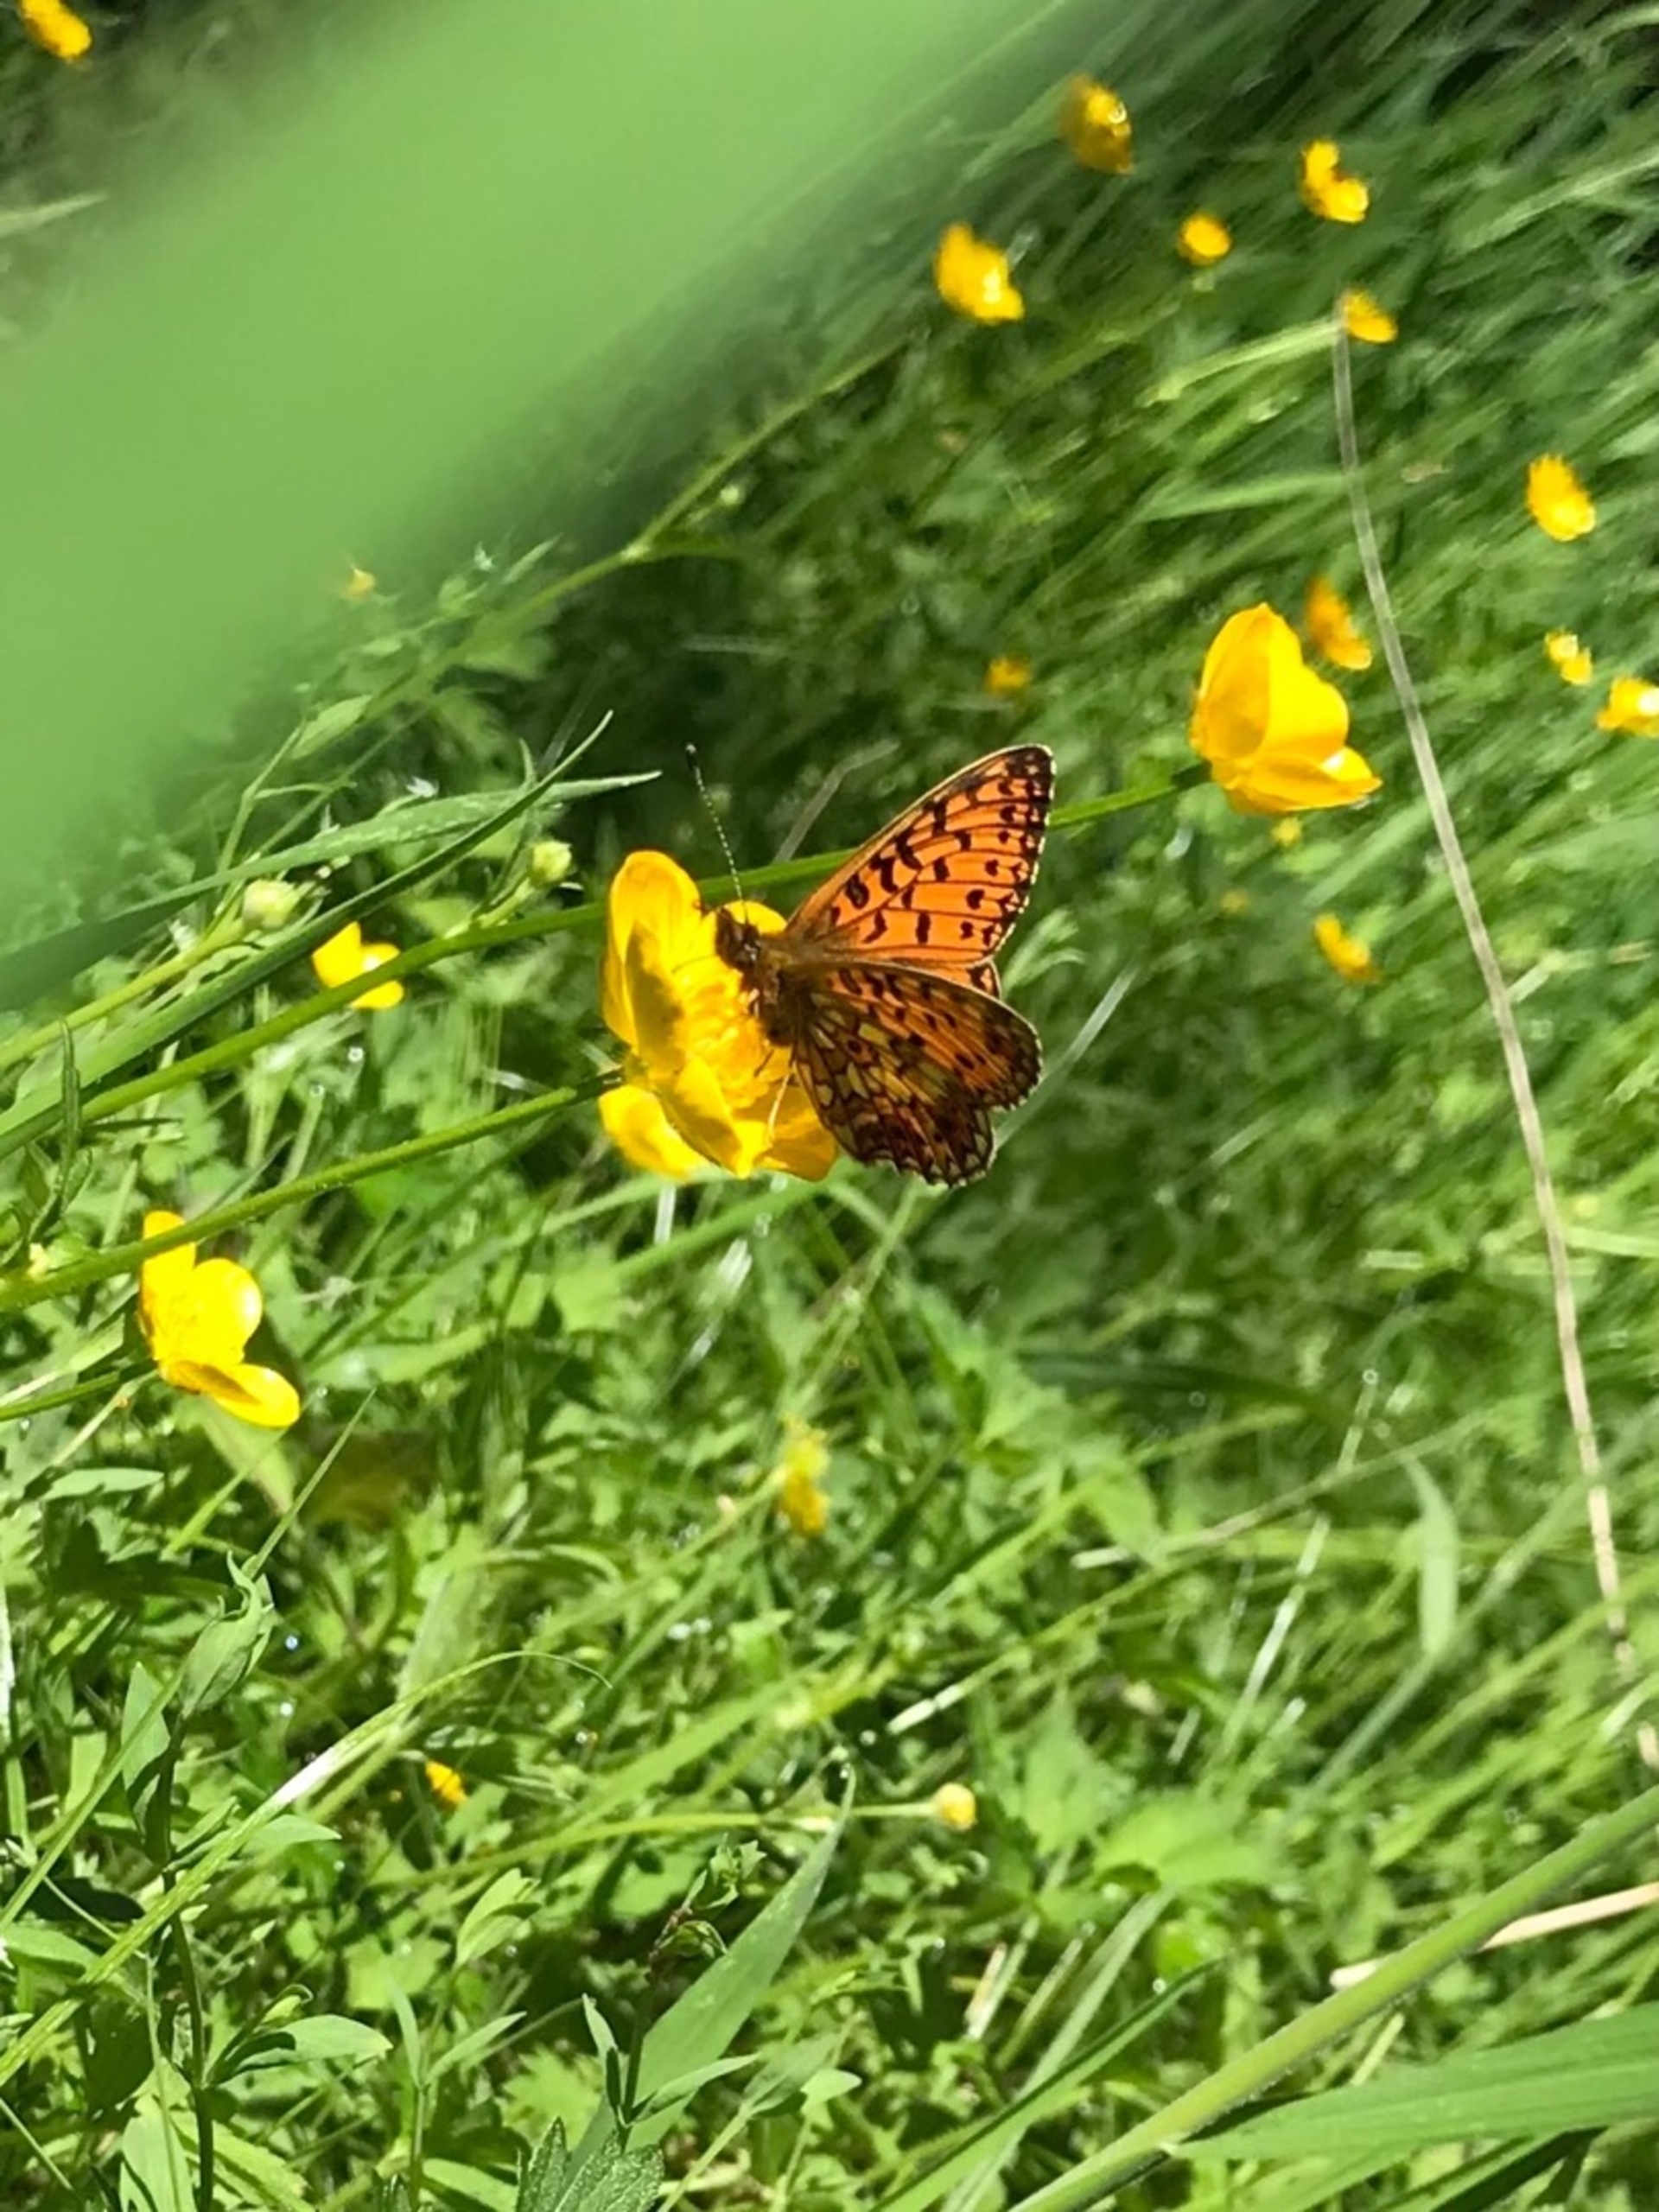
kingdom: Animalia
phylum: Arthropoda
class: Insecta
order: Lepidoptera
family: Nymphalidae
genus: Boloria
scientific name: Boloria selene
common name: Brunlig perlemorsommerfugl
